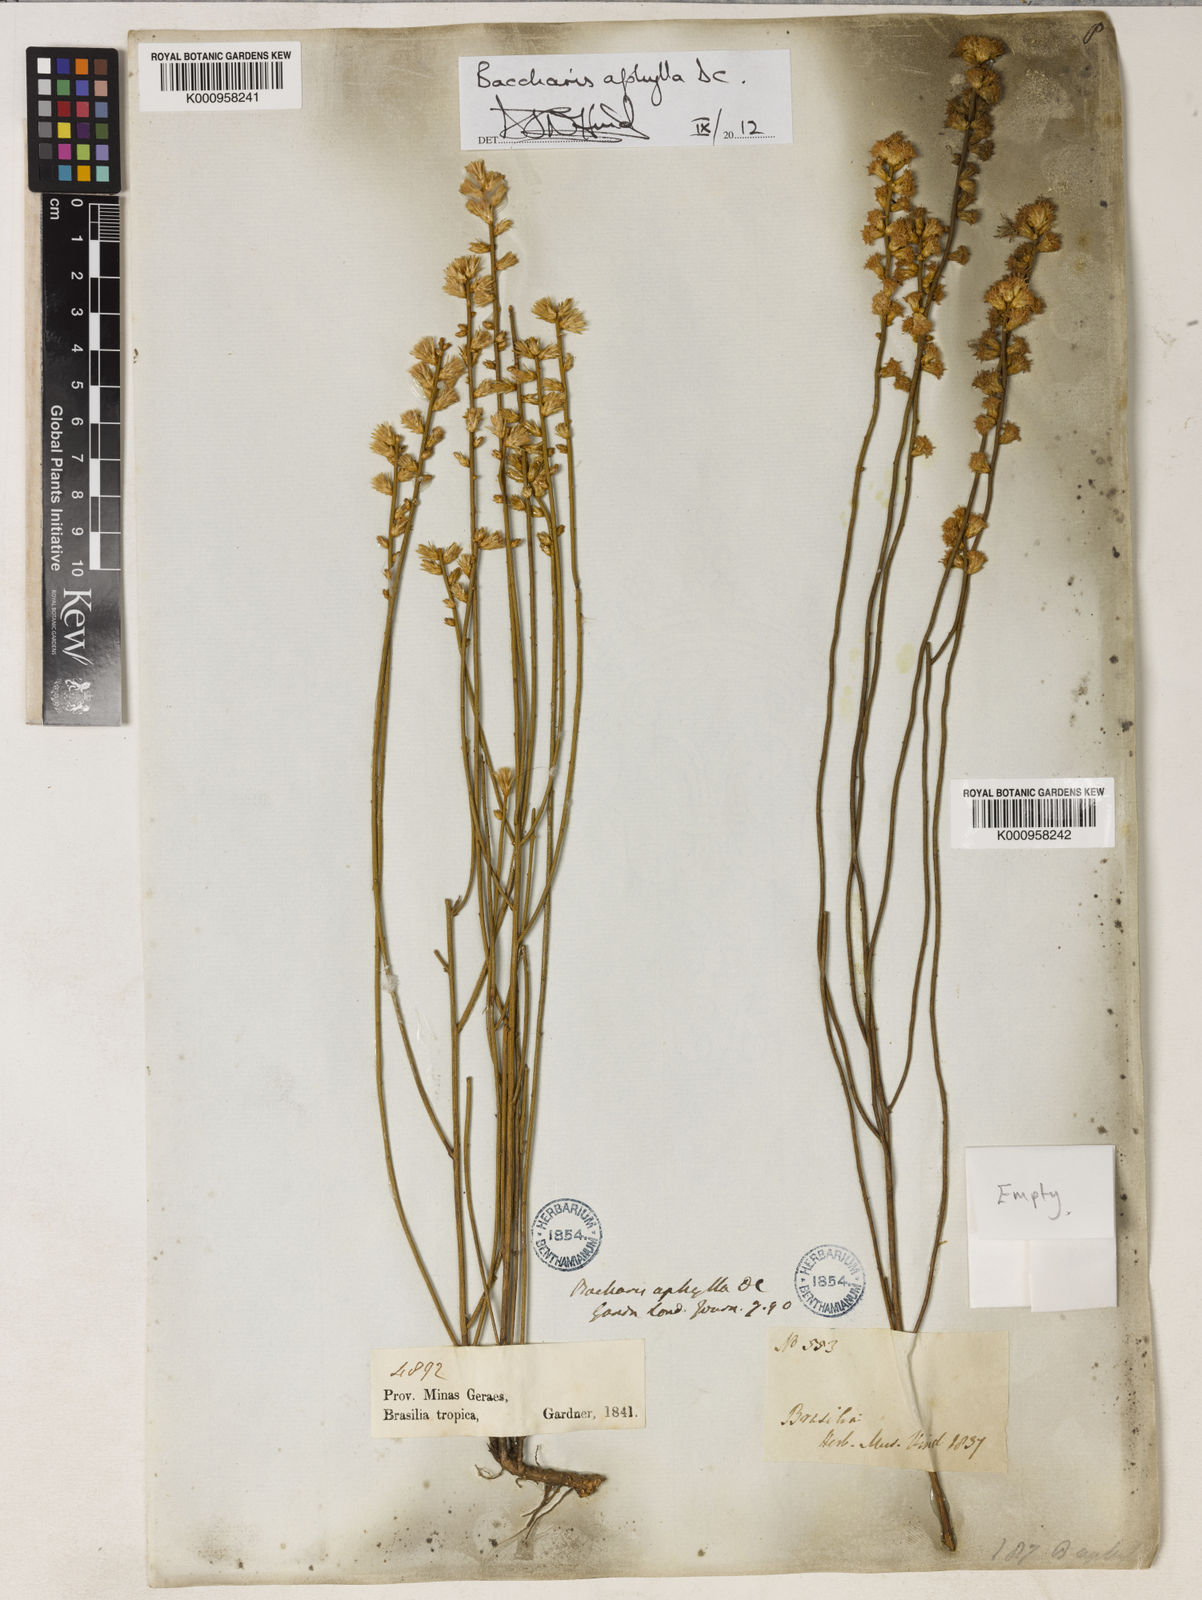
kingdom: Plantae
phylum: Tracheophyta
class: Magnoliopsida
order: Asterales
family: Asteraceae
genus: Baccharis
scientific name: Baccharis aphylla
